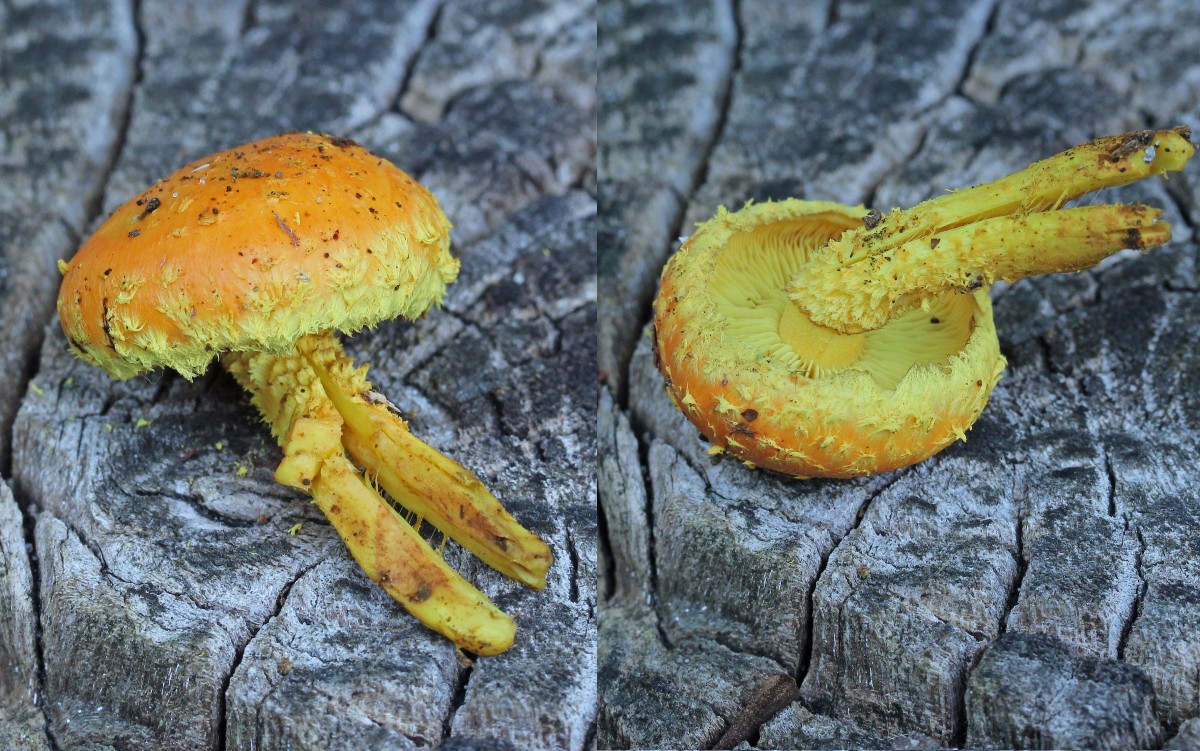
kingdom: Fungi
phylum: Basidiomycota
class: Agaricomycetes
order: Agaricales
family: Strophariaceae
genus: Pholiota
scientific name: Pholiota flammans
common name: flamme-skælhat
